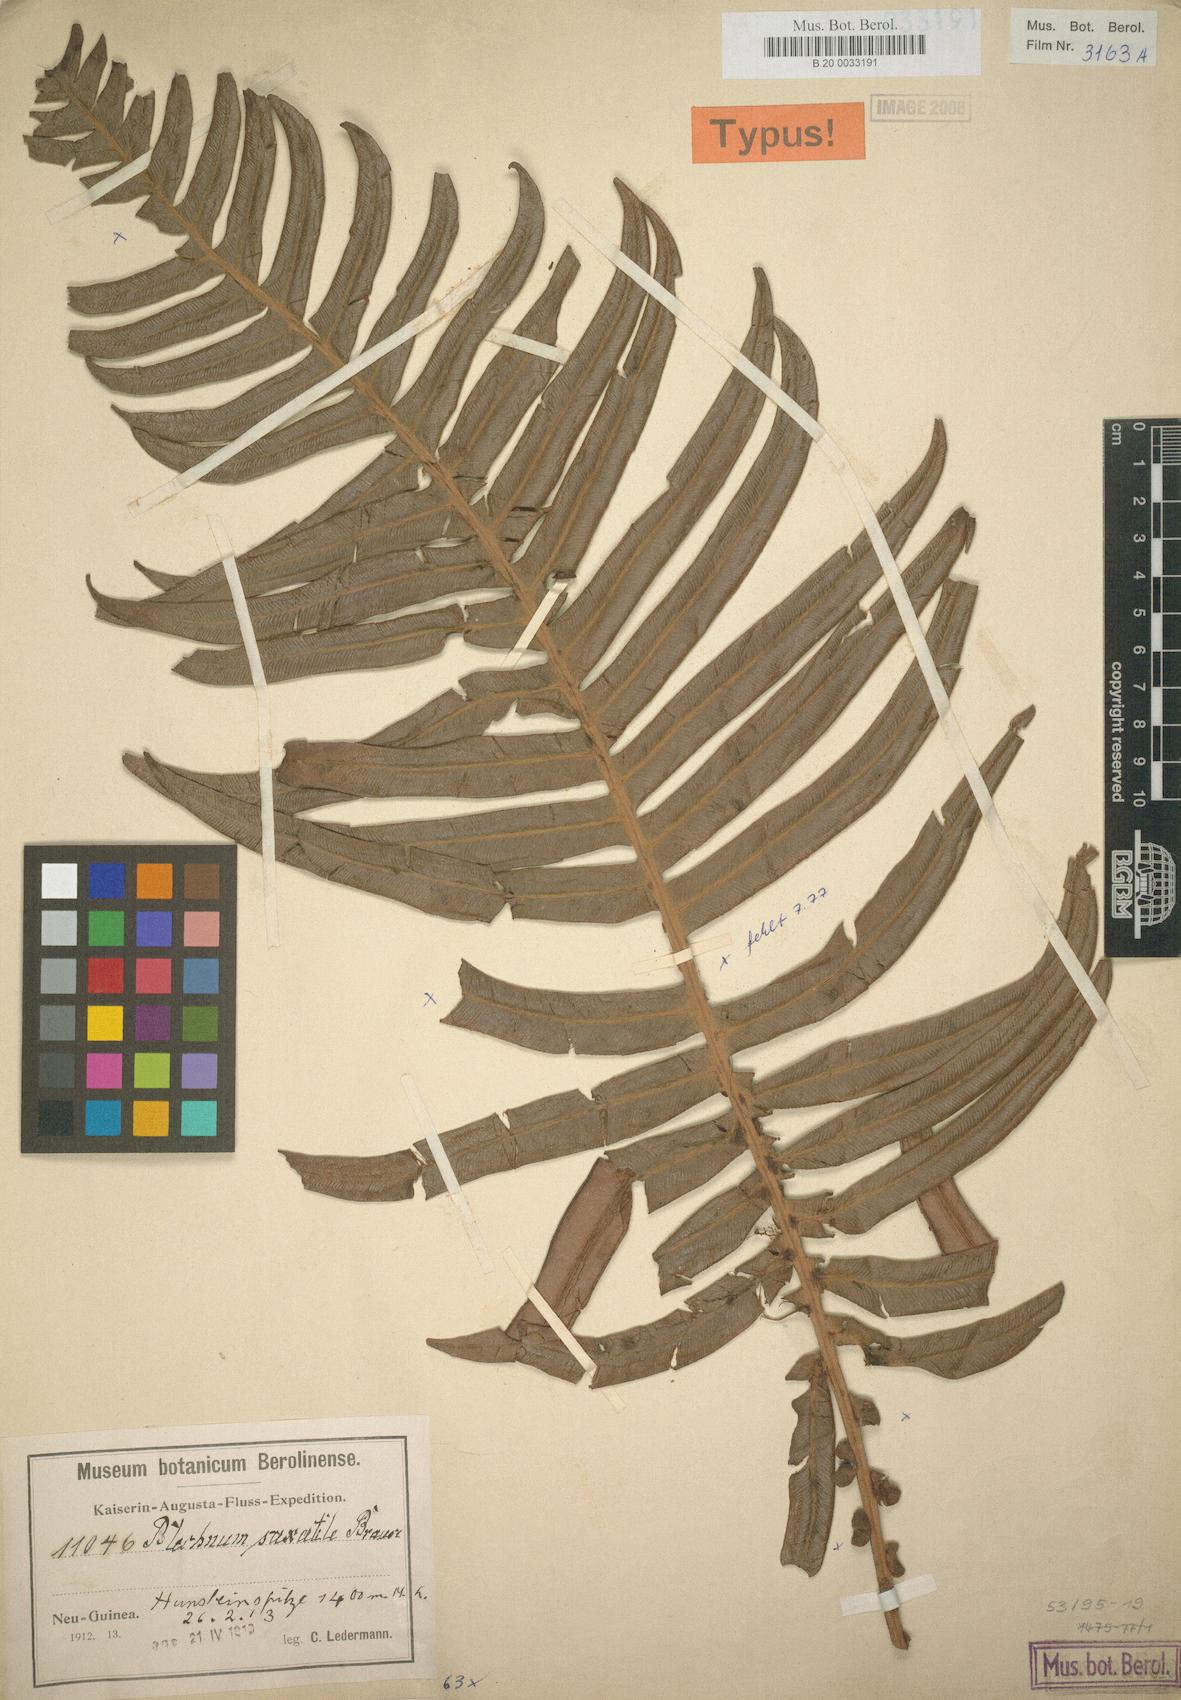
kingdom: Plantae
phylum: Tracheophyta
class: Polypodiopsida
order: Polypodiales
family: Blechnaceae
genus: Austroblechnum
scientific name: Austroblechnum keysseri
